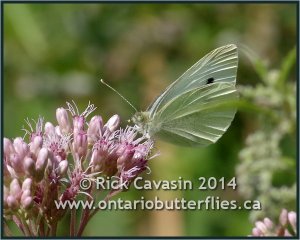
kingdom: Animalia
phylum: Arthropoda
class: Insecta
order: Lepidoptera
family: Pieridae
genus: Pieris
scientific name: Pieris rapae
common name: Cabbage White
